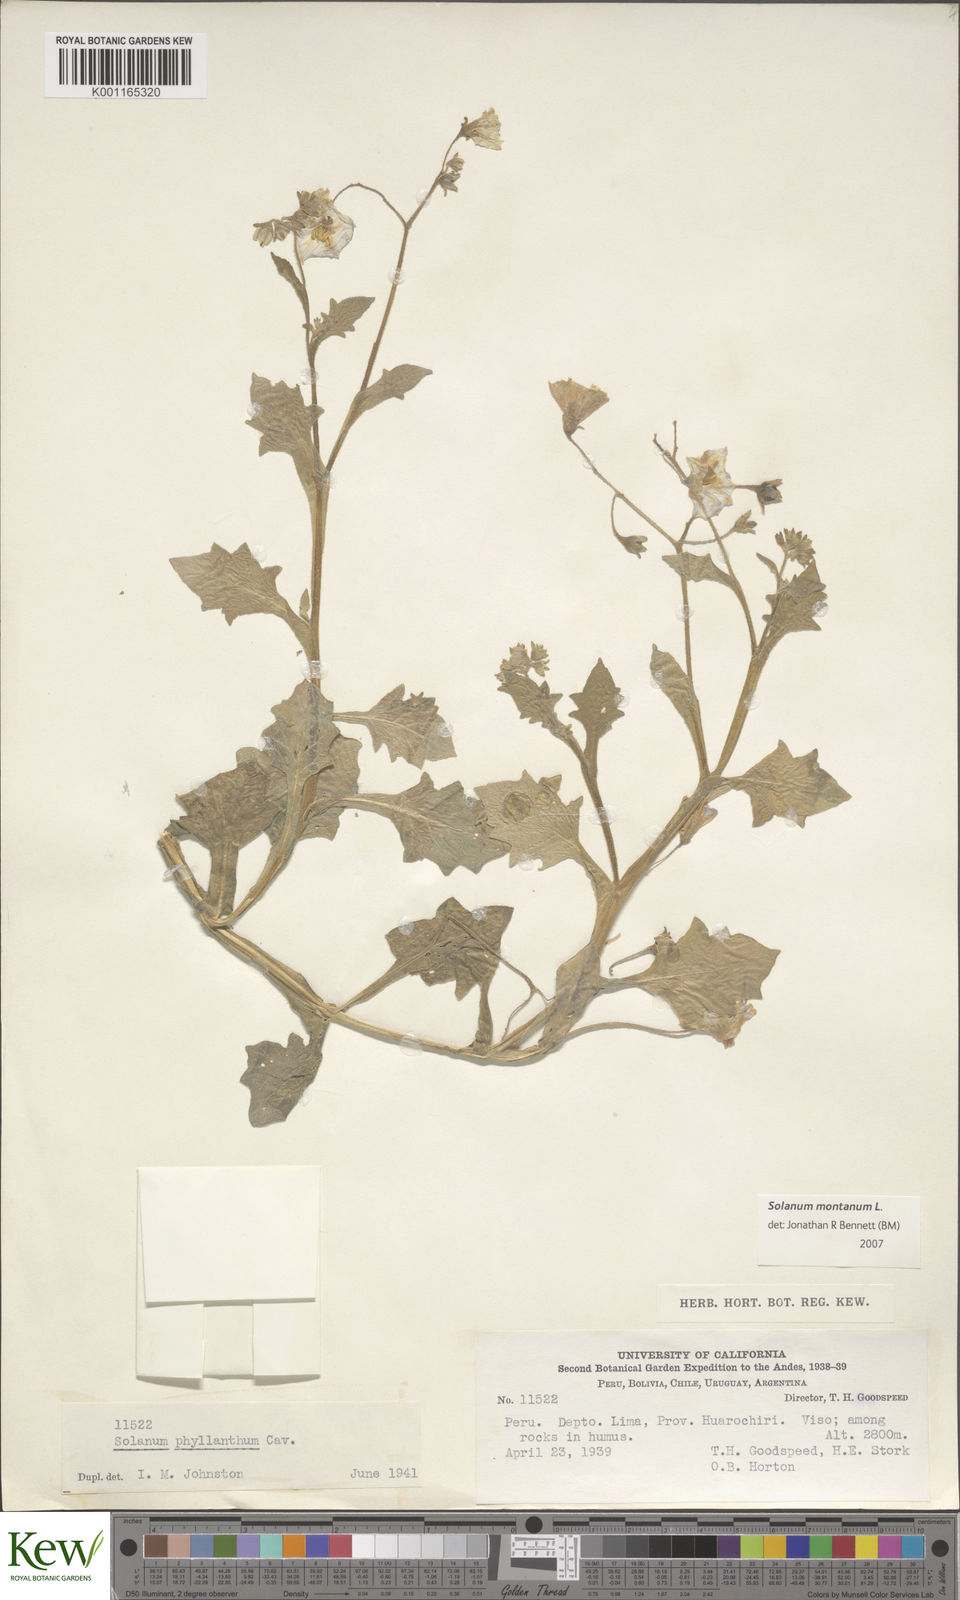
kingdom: Plantae
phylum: Tracheophyta
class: Magnoliopsida
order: Solanales
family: Solanaceae
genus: Solanum
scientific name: Solanum paposanum
